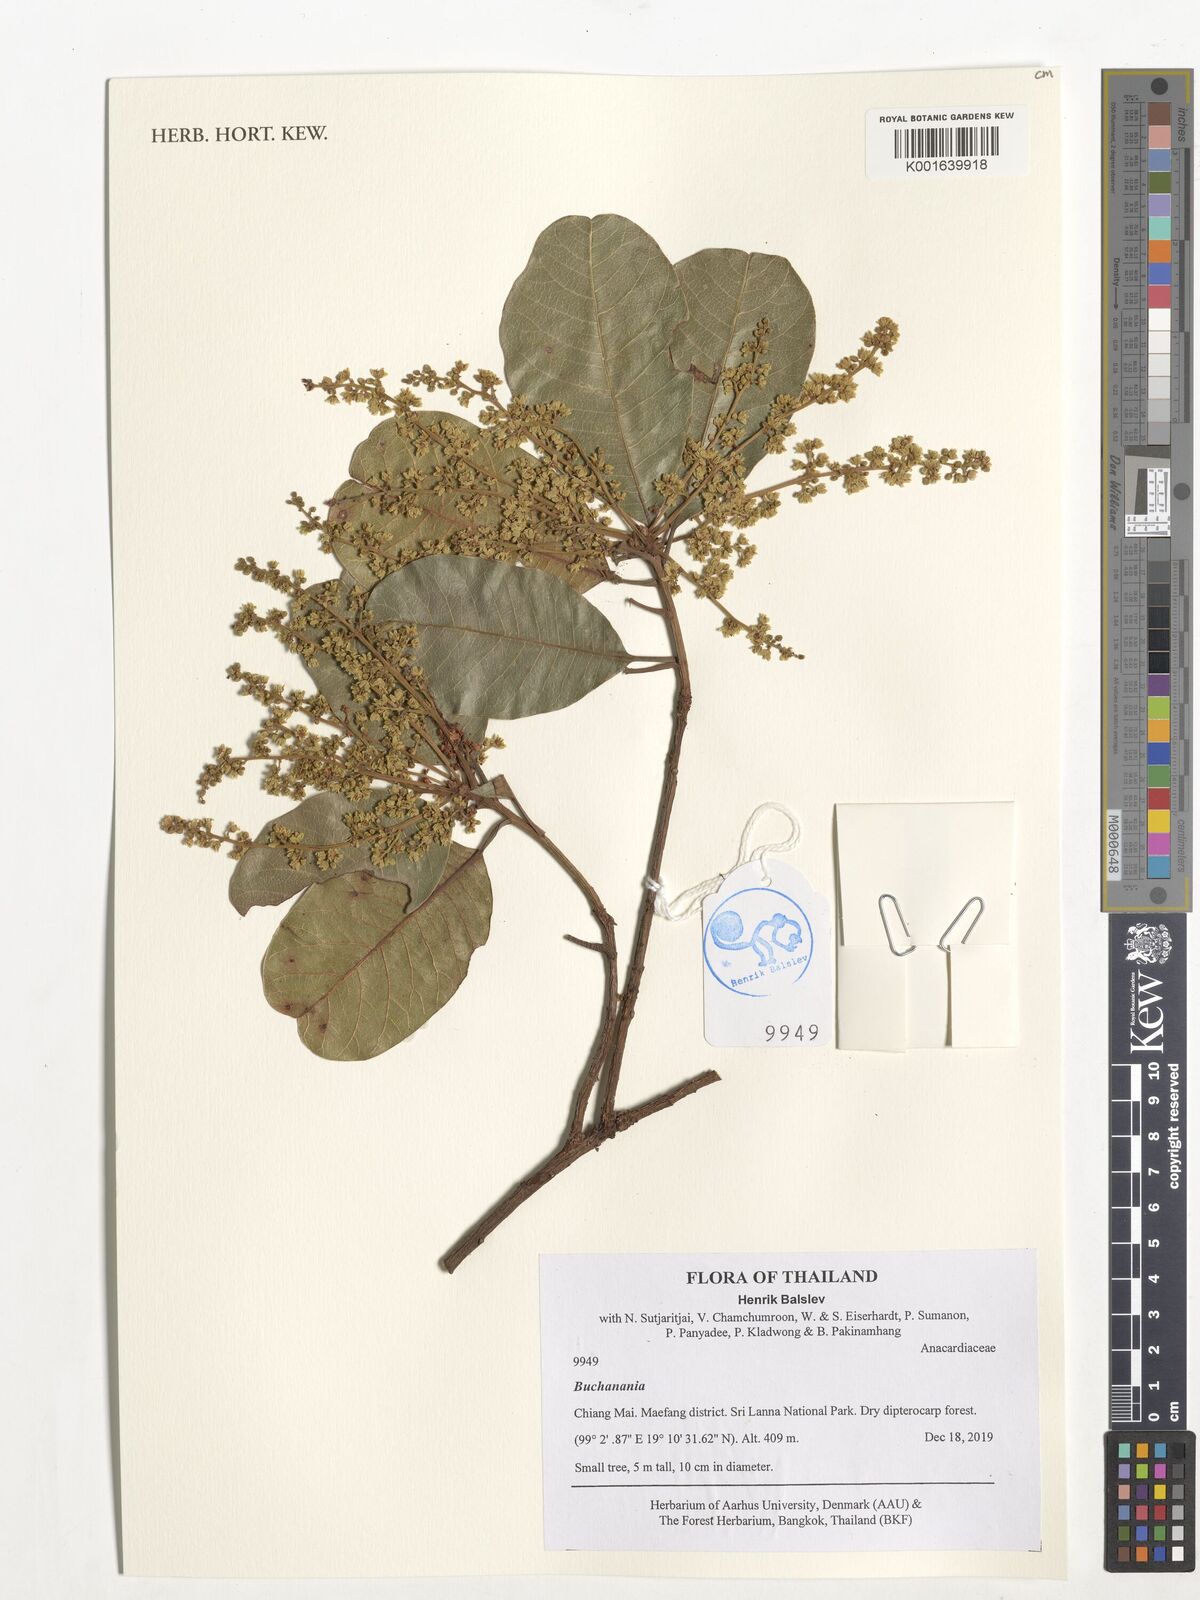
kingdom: Plantae
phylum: Tracheophyta
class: Magnoliopsida
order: Sapindales
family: Anacardiaceae
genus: Buchanania
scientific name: Buchanania
